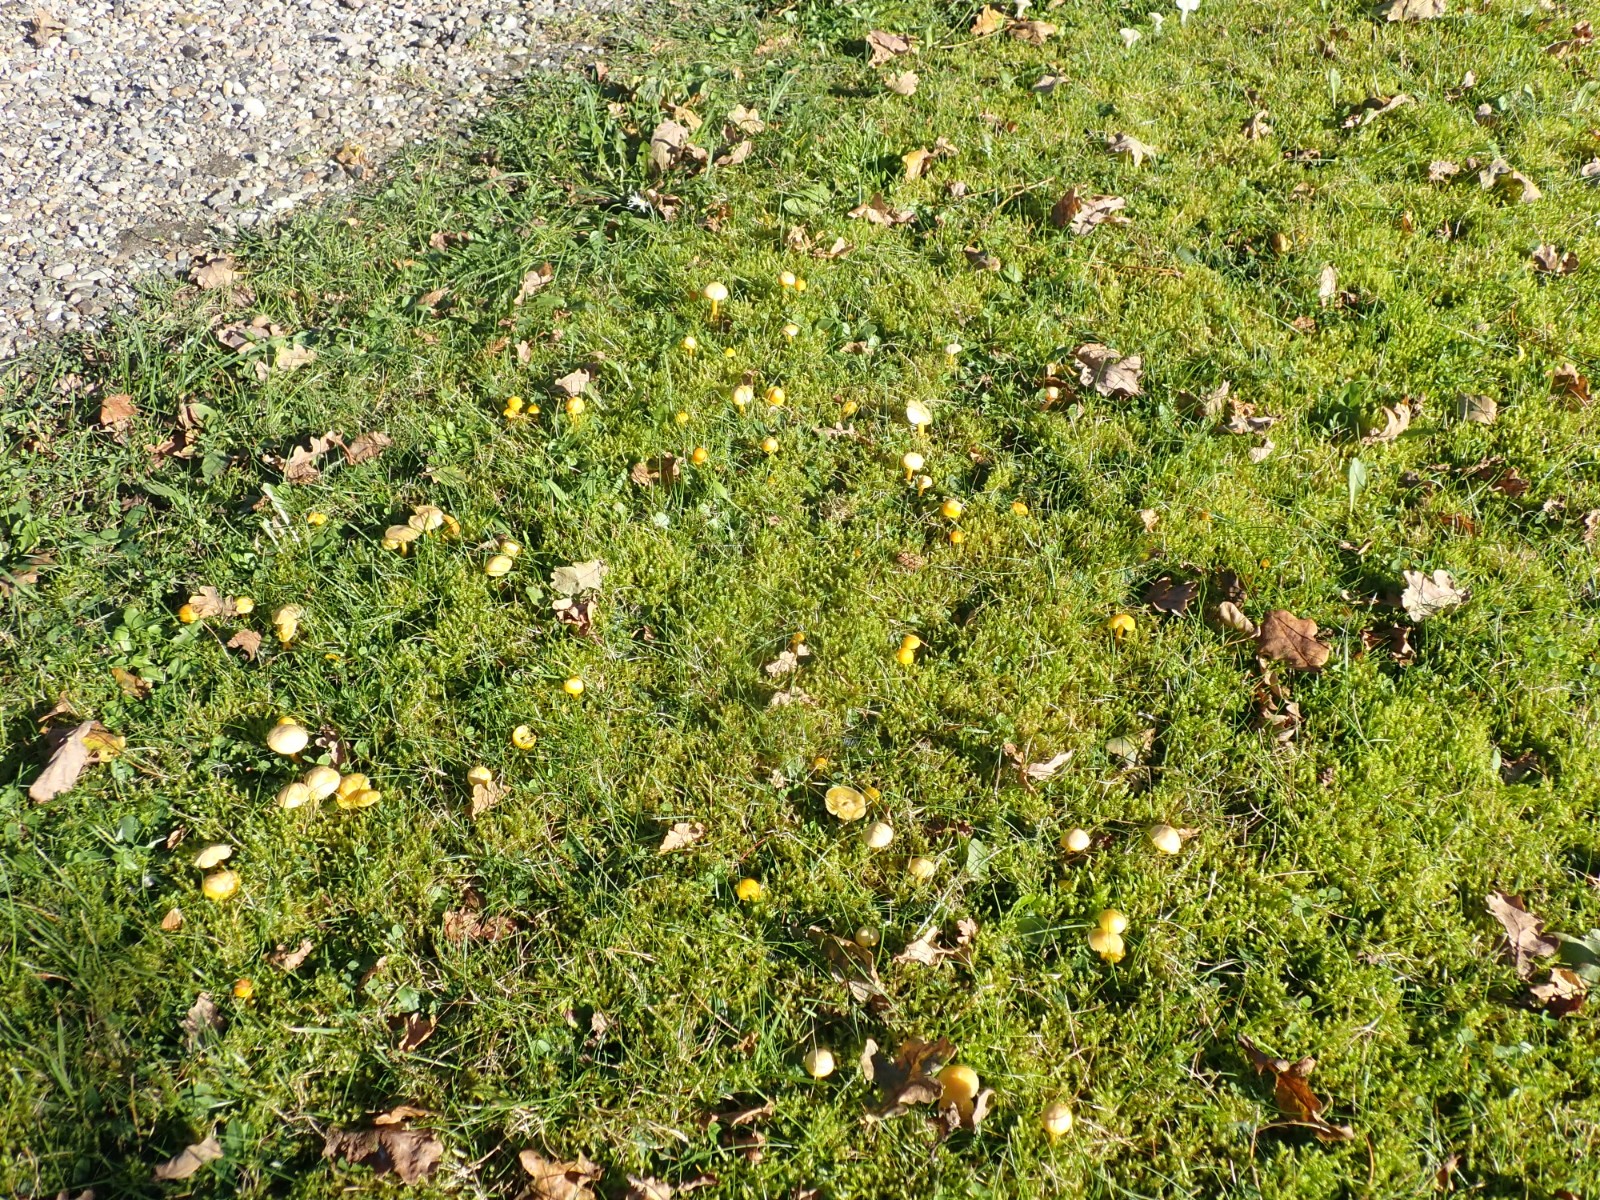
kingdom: Fungi
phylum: Basidiomycota
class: Agaricomycetes
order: Agaricales
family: Hygrophoraceae
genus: Hygrocybe
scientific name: Hygrocybe ceracea
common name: voksgul vokshat
